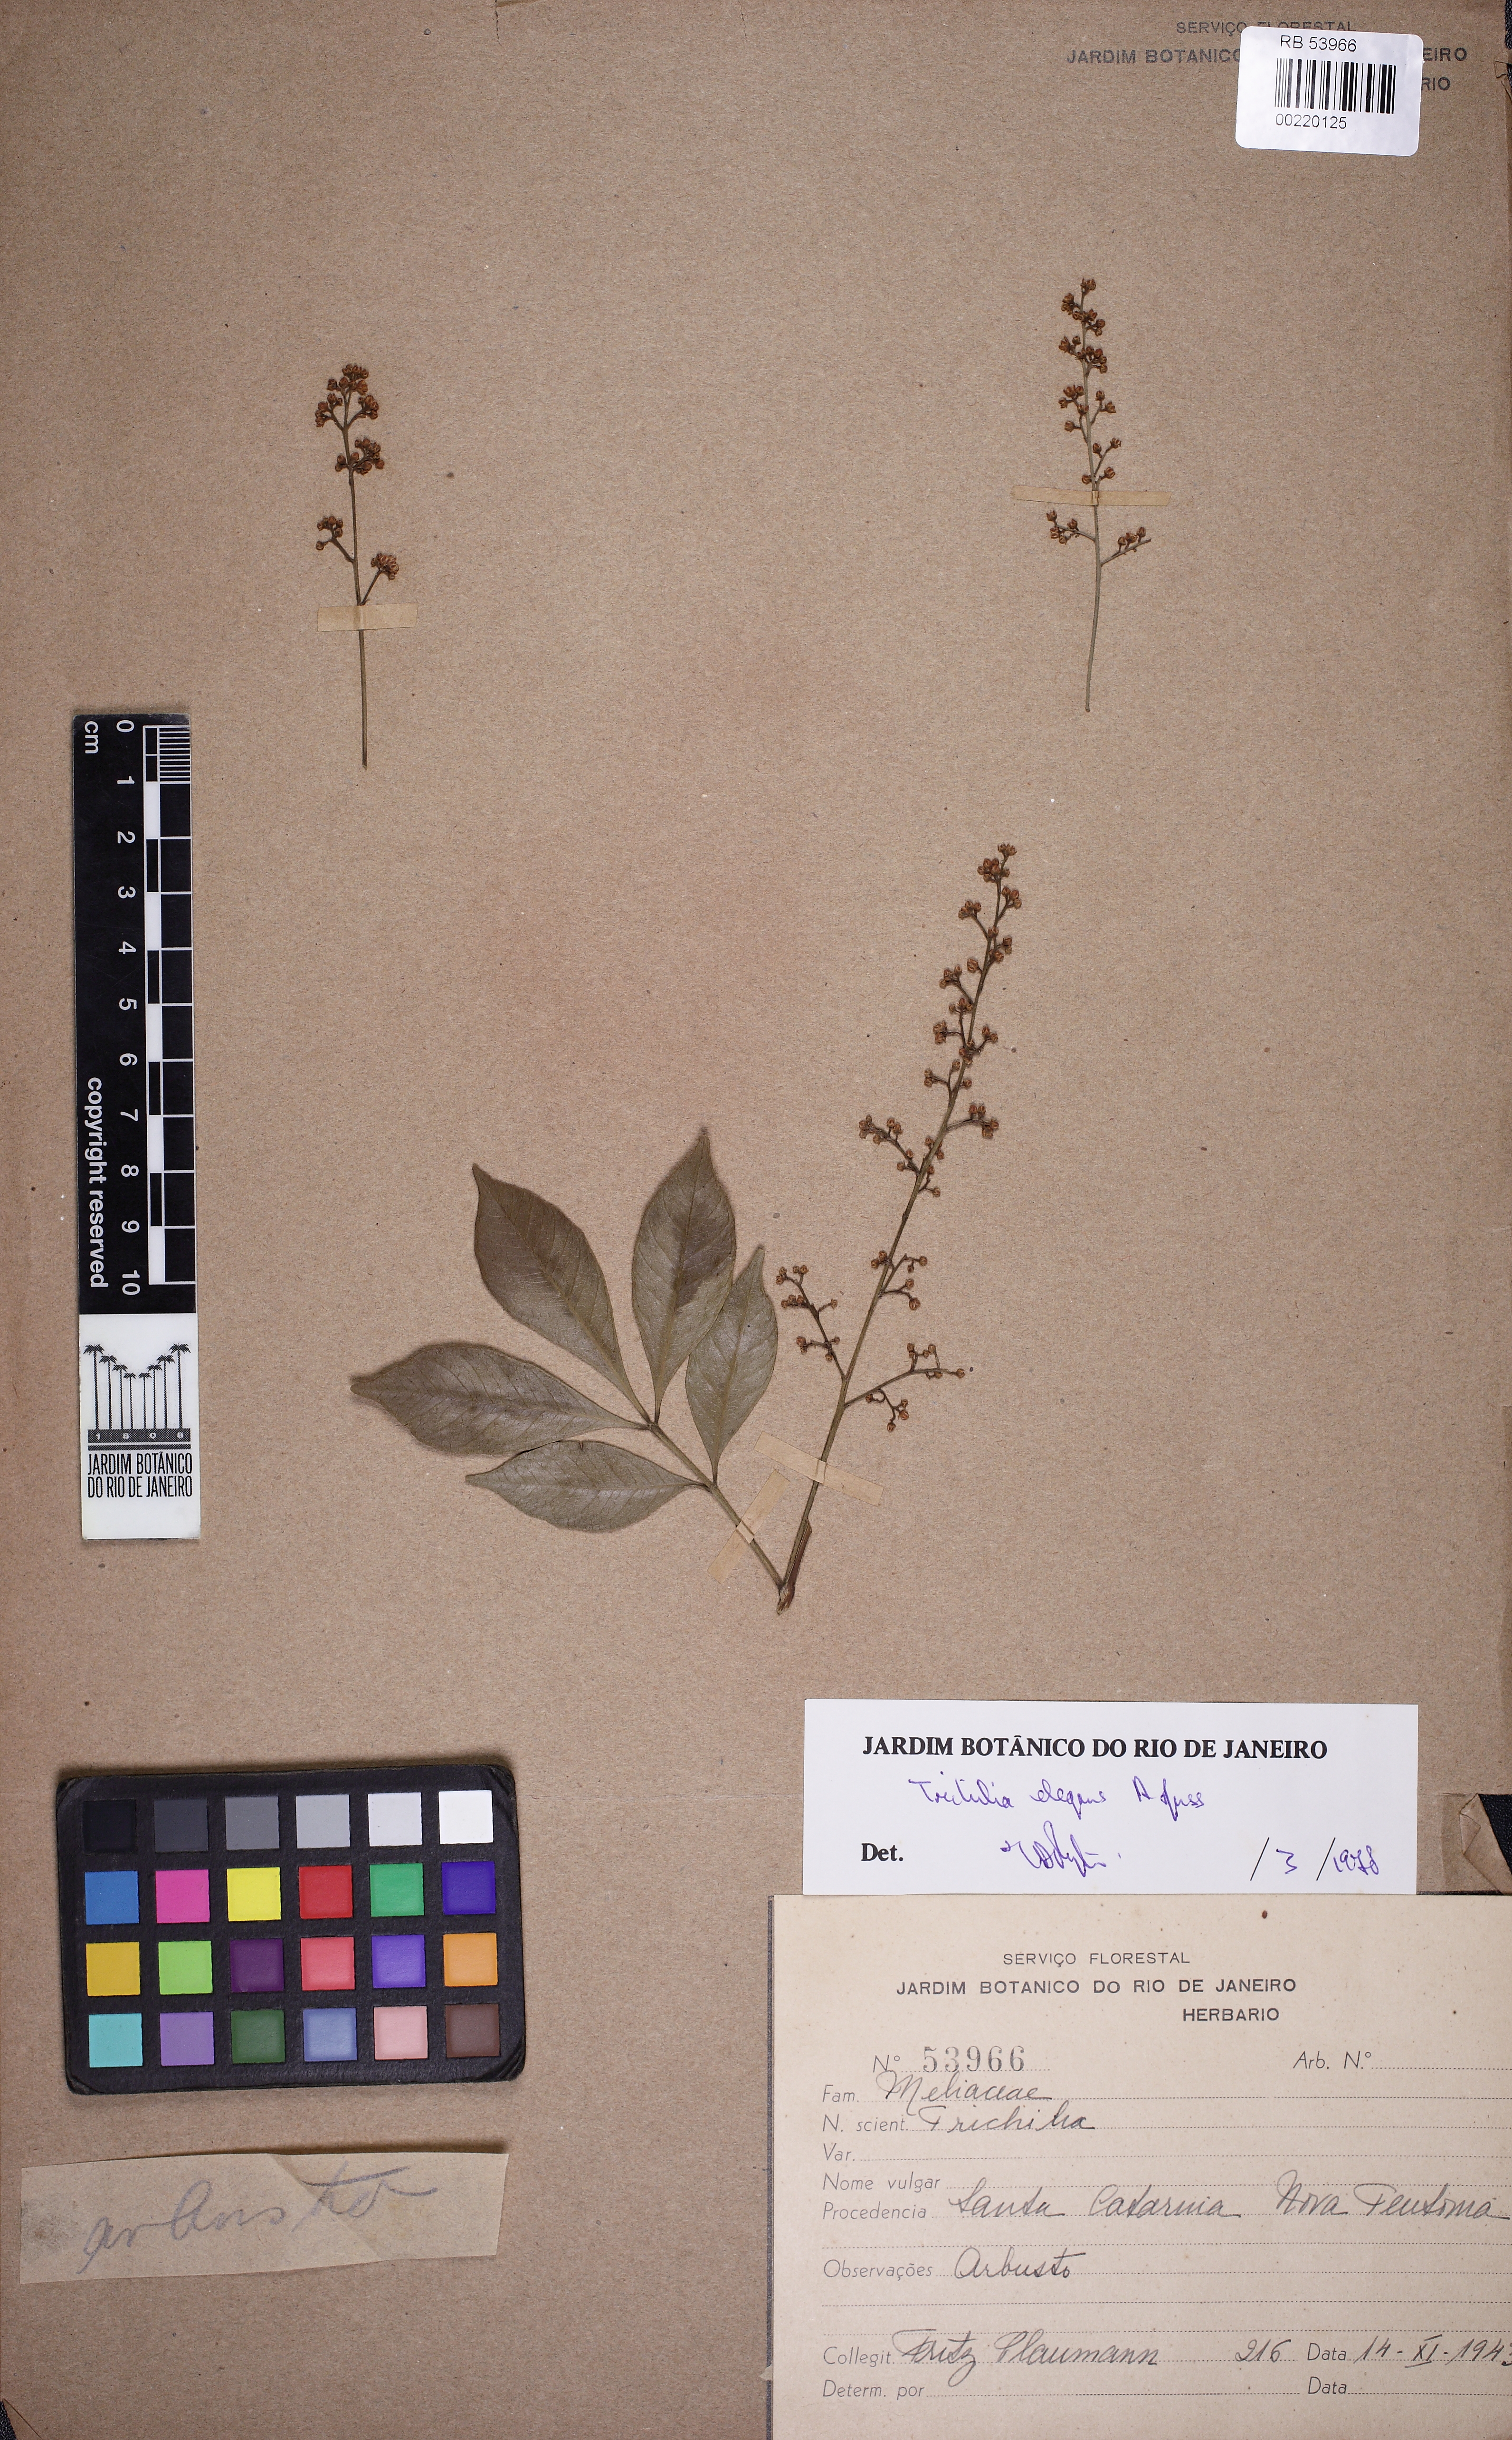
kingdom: Plantae
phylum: Tracheophyta
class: Magnoliopsida
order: Sapindales
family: Meliaceae
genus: Trichilia
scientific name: Trichilia elegans
